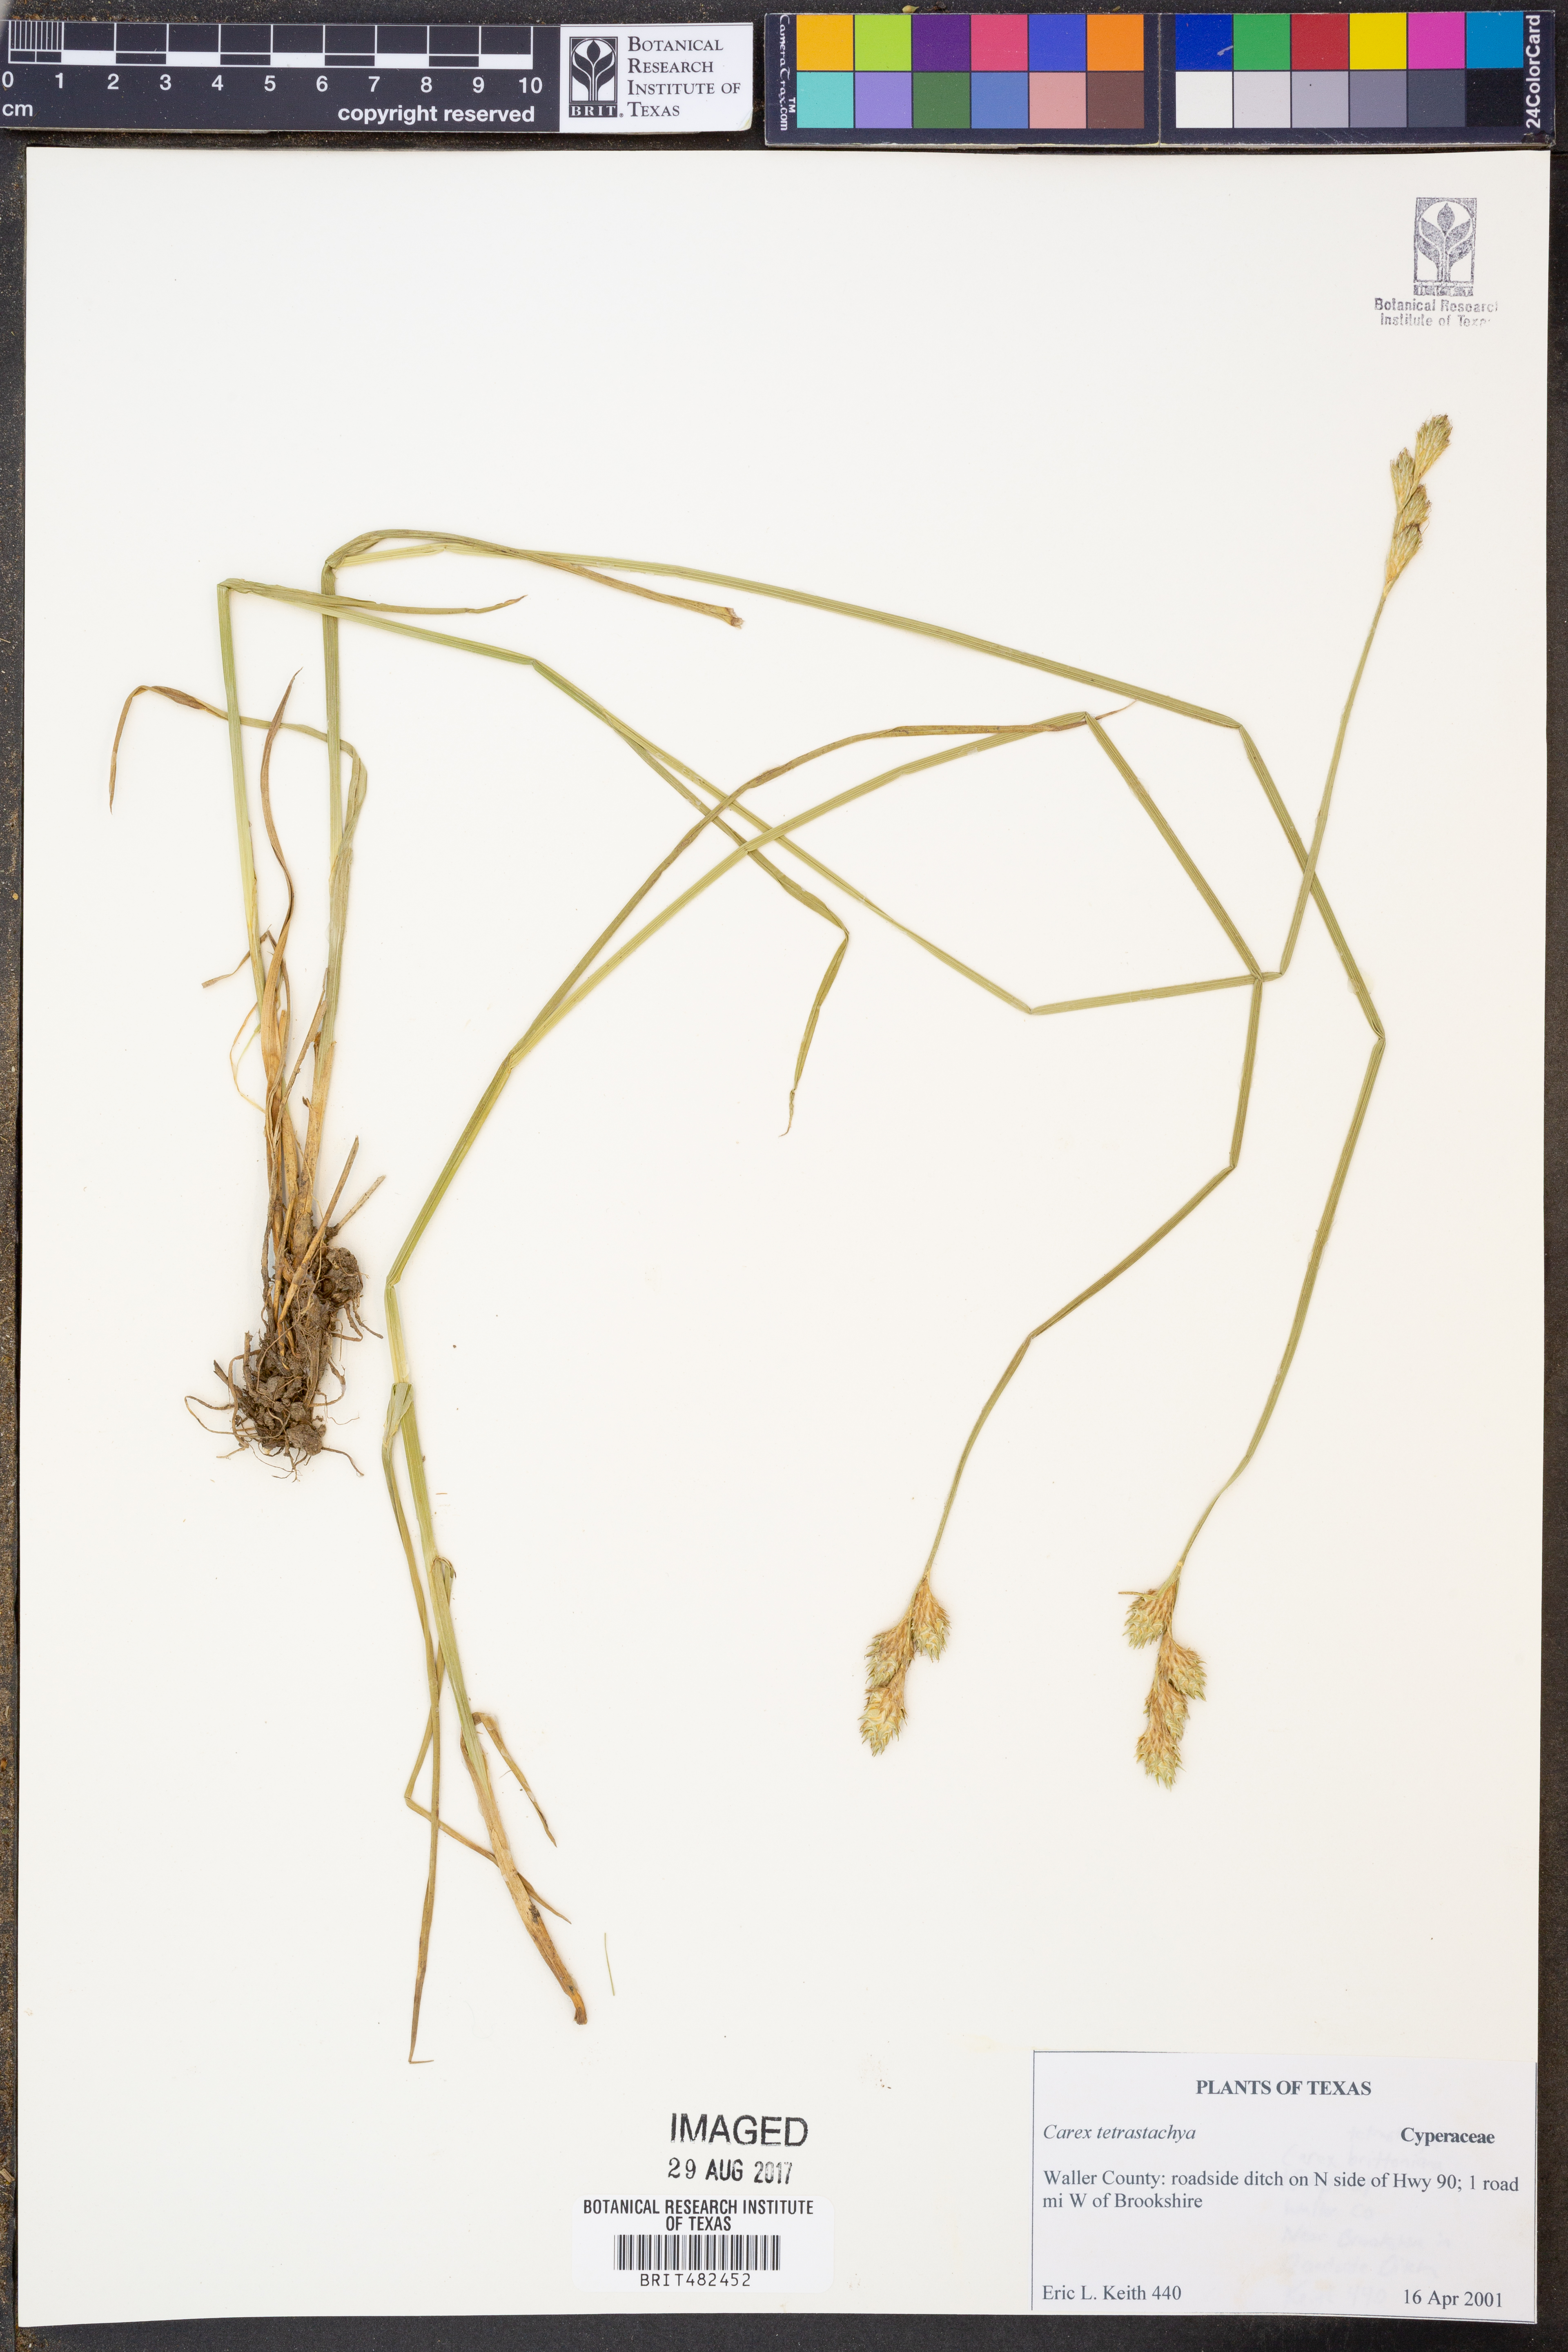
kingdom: Plantae
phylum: Tracheophyta
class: Liliopsida
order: Poales
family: Cyperaceae
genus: Carex
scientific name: Carex tetrastachya
